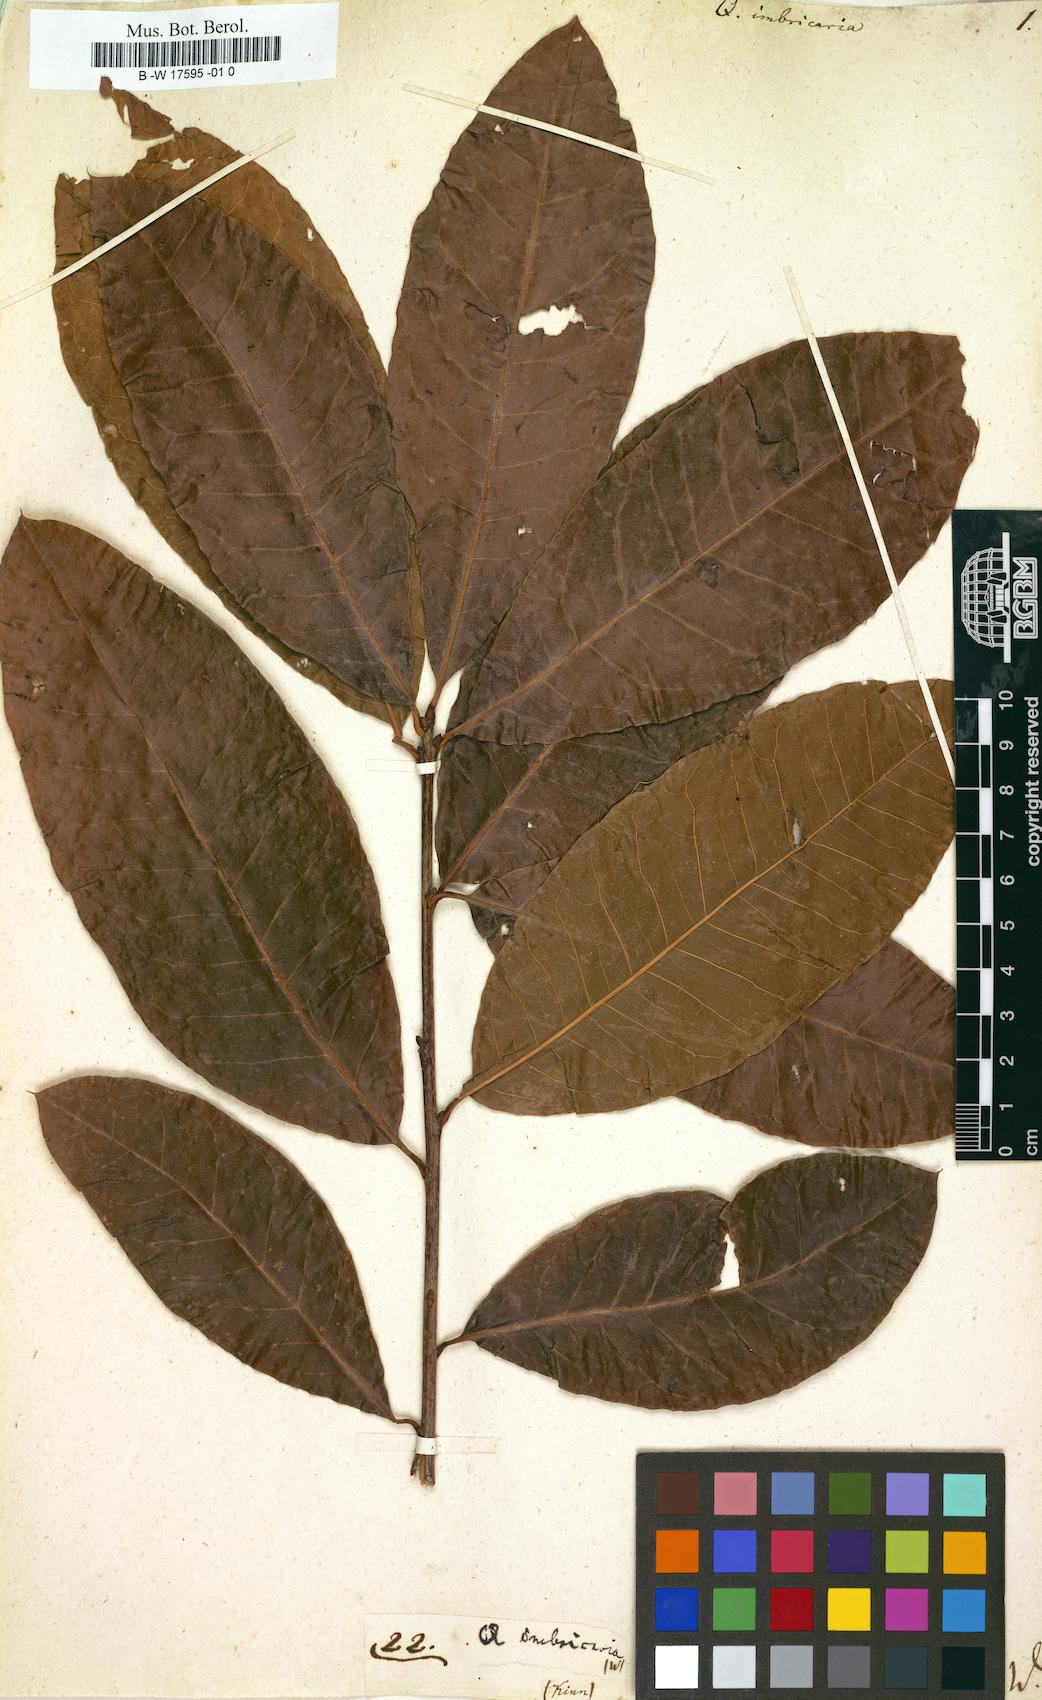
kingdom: Plantae
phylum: Tracheophyta
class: Magnoliopsida
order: Fagales
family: Fagaceae
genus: Quercus
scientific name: Quercus imbricaria
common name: Shingle oak
